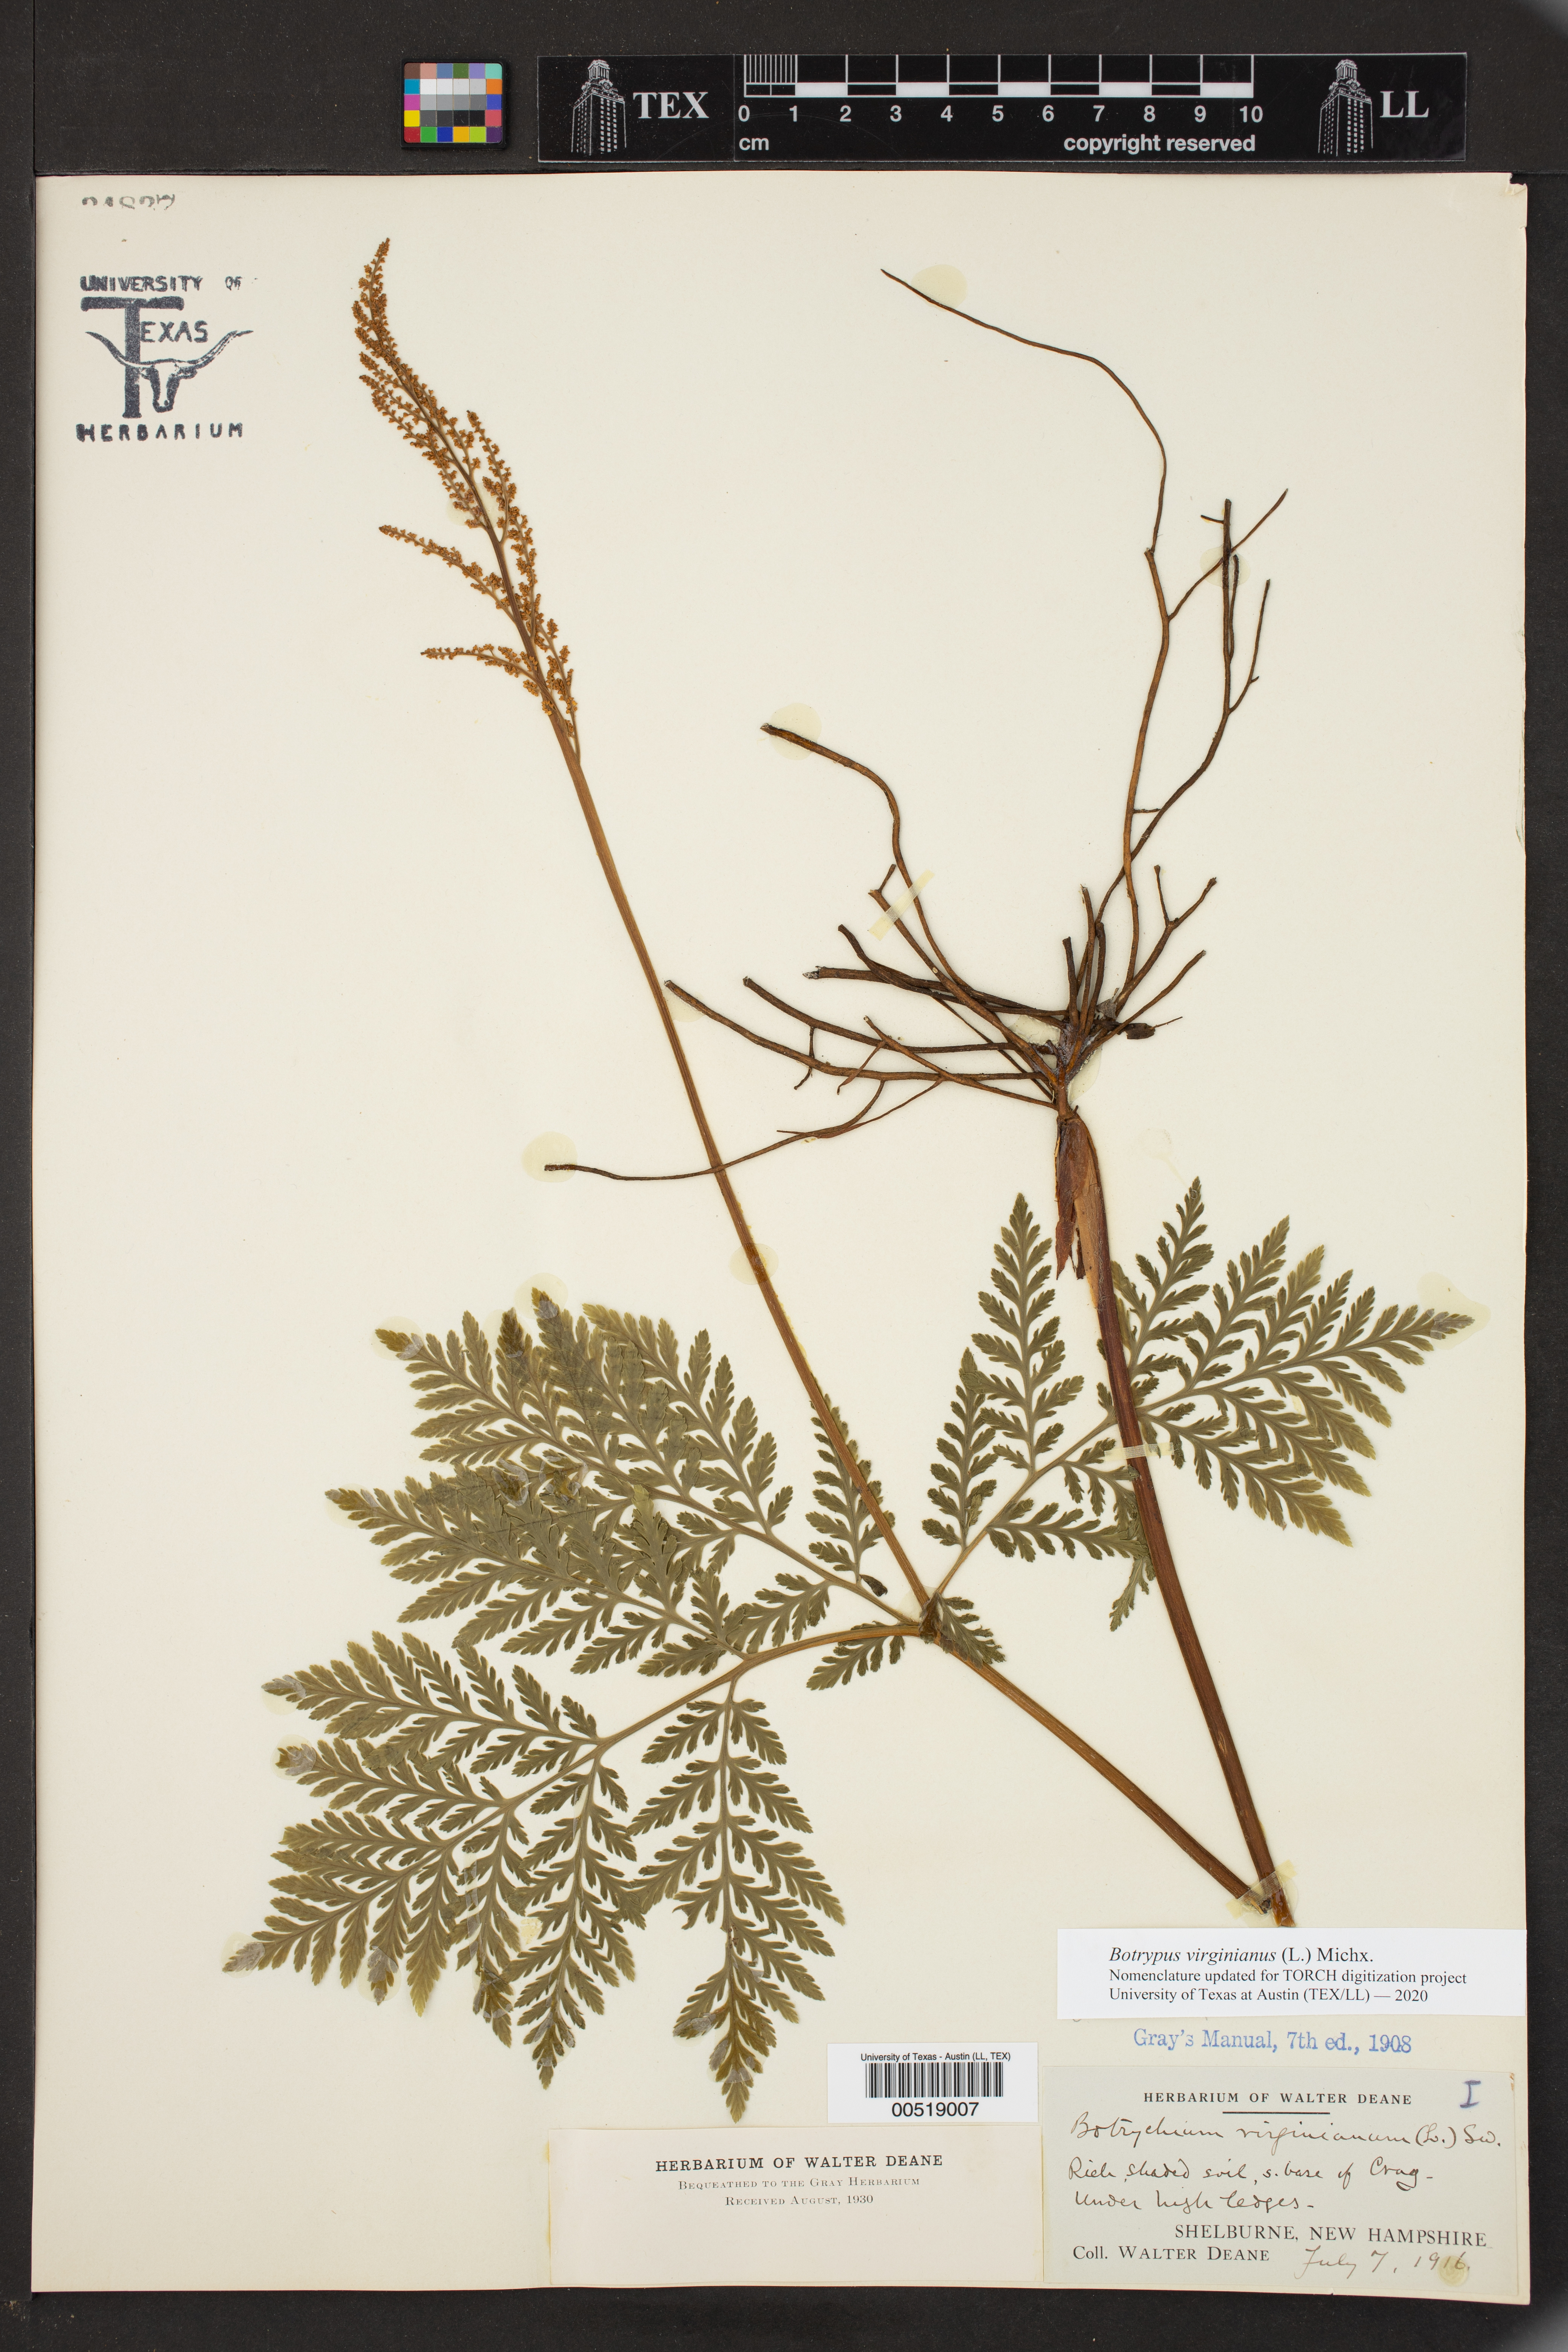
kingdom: Plantae
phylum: Tracheophyta
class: Polypodiopsida
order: Ophioglossales
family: Ophioglossaceae
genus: Botrypus
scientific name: Botrypus virginianus
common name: Common grapefern
